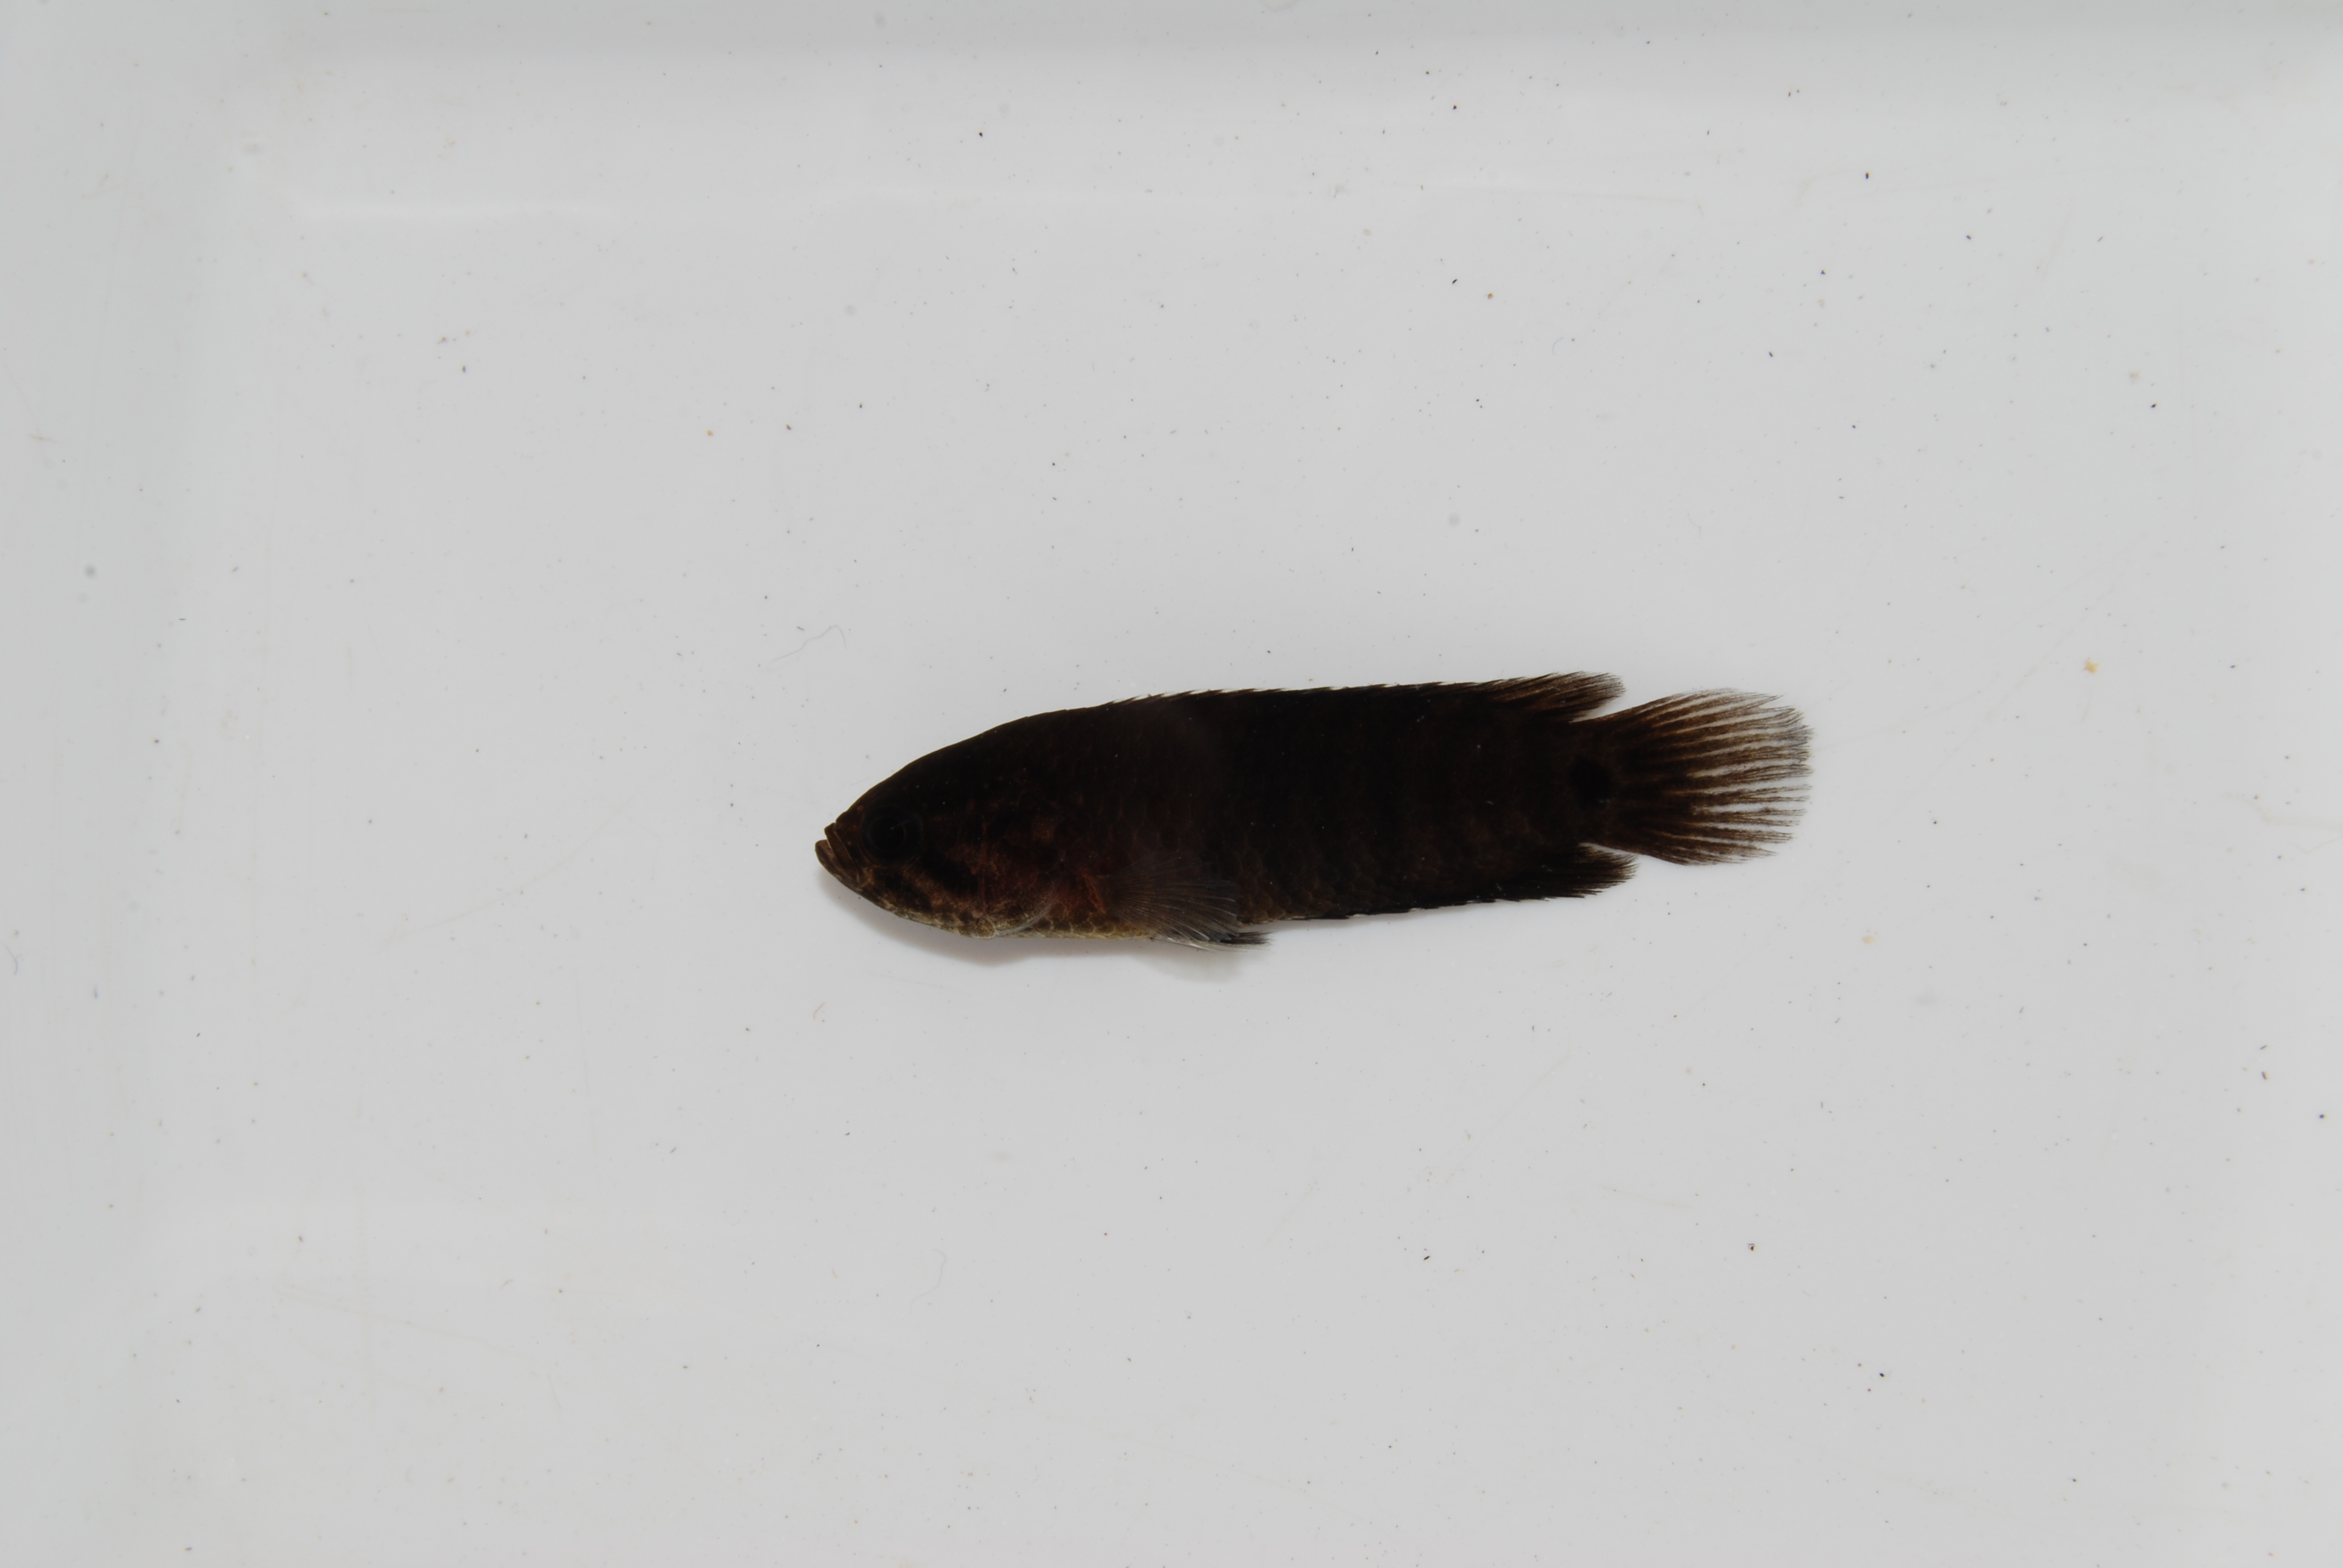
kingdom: Animalia
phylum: Chordata
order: Perciformes
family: Anabantidae
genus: Microctenopoma
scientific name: Microctenopoma intermedium
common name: Blackspot climbing perch
